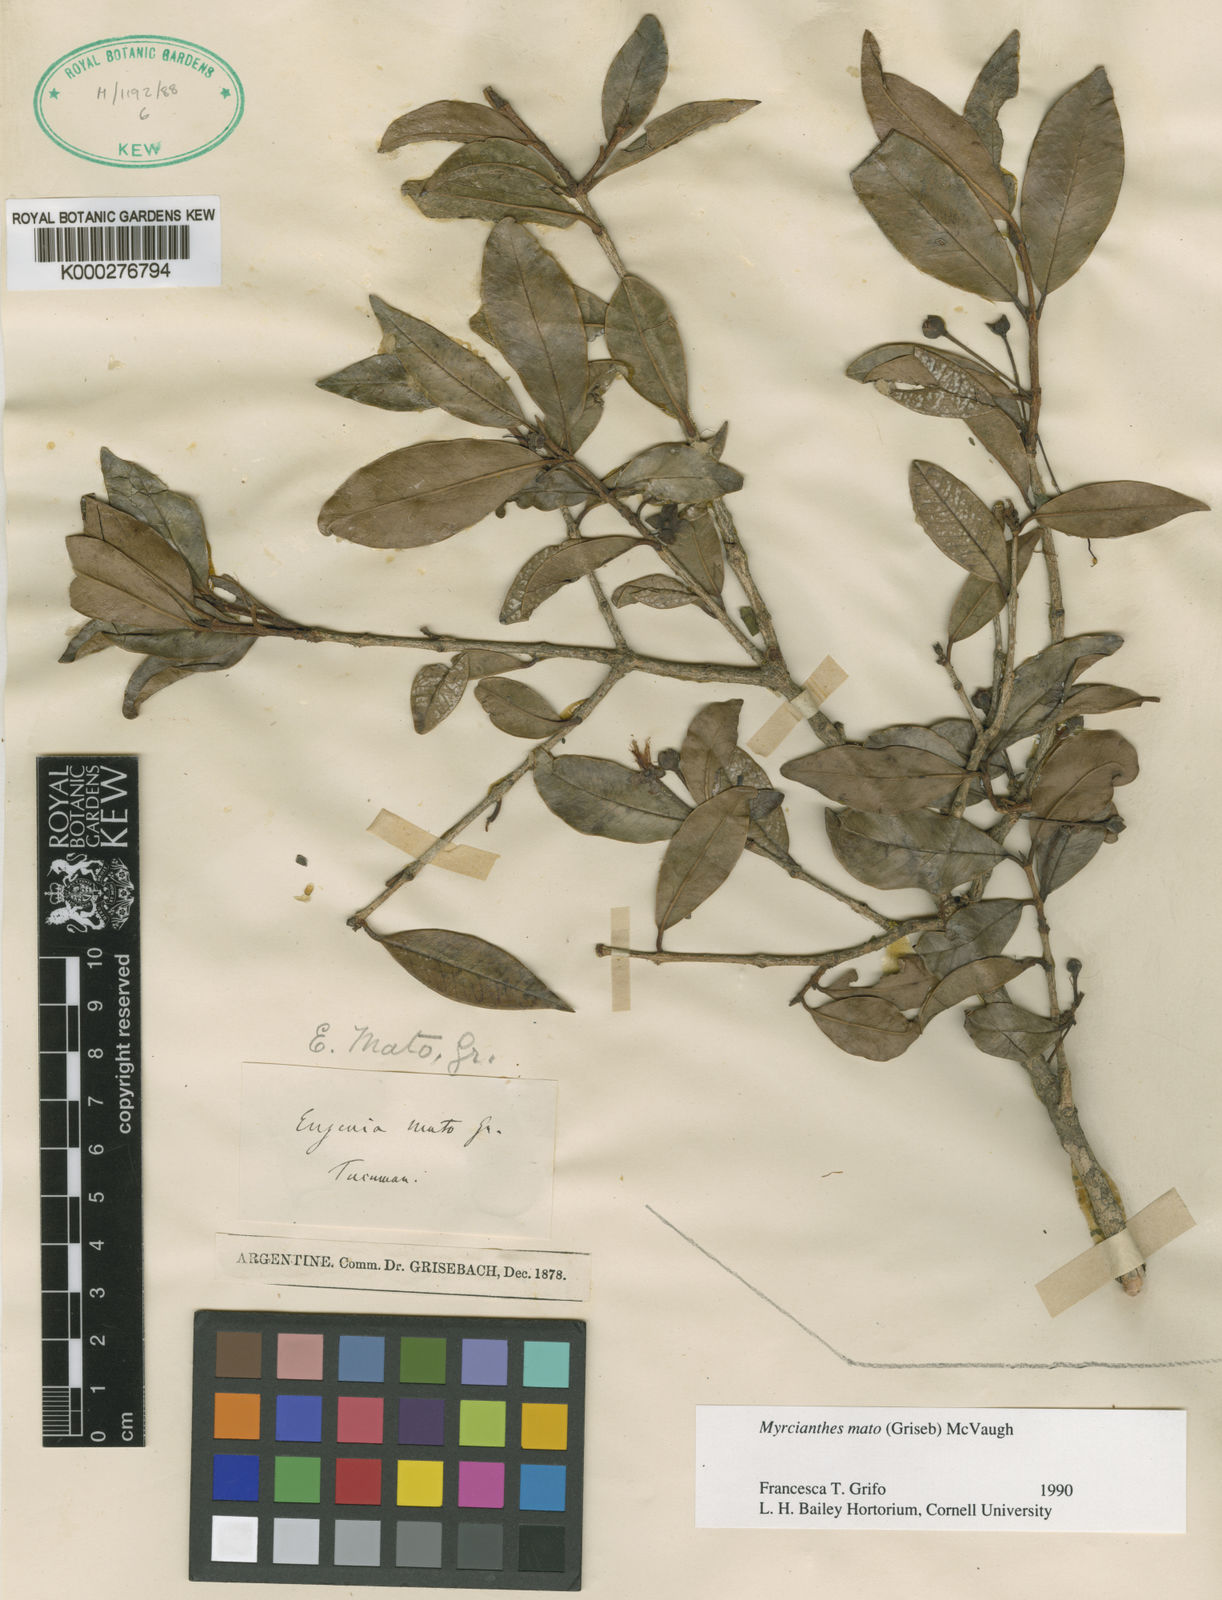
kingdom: Plantae
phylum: Tracheophyta
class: Magnoliopsida
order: Myrtales
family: Myrtaceae
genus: Myrcianthes
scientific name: Myrcianthes mato
